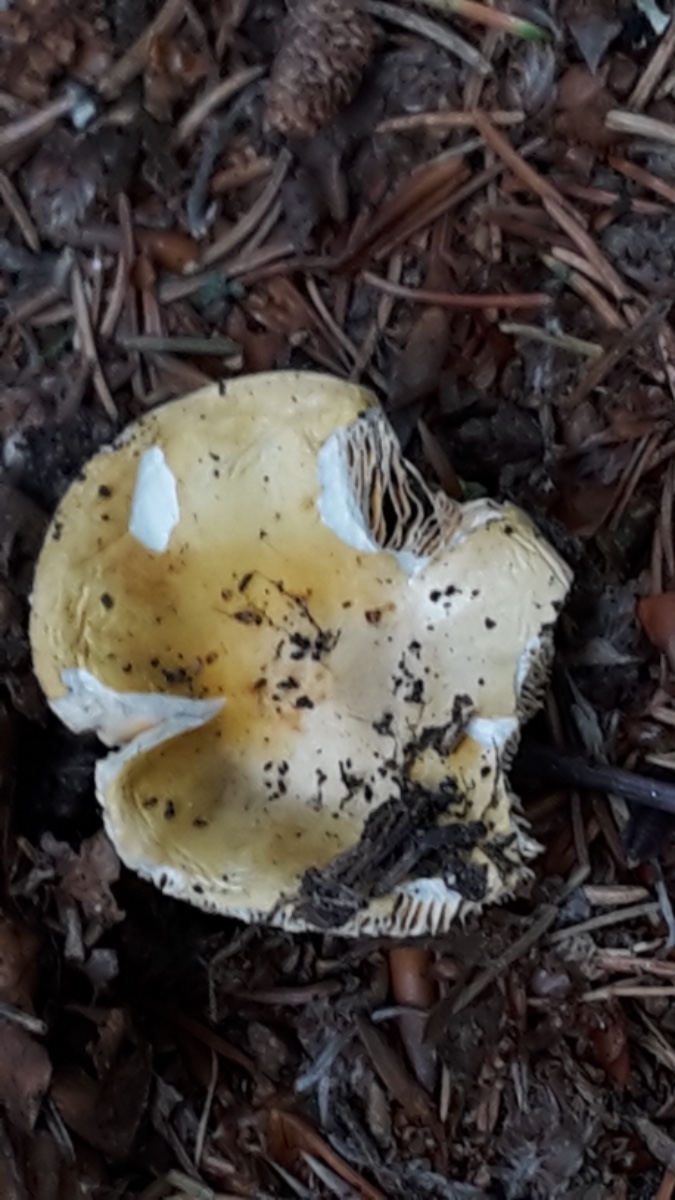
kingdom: Fungi
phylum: Basidiomycota
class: Agaricomycetes
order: Russulales
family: Russulaceae
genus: Russula
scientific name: Russula risigallina
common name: abrikos-skørhat
